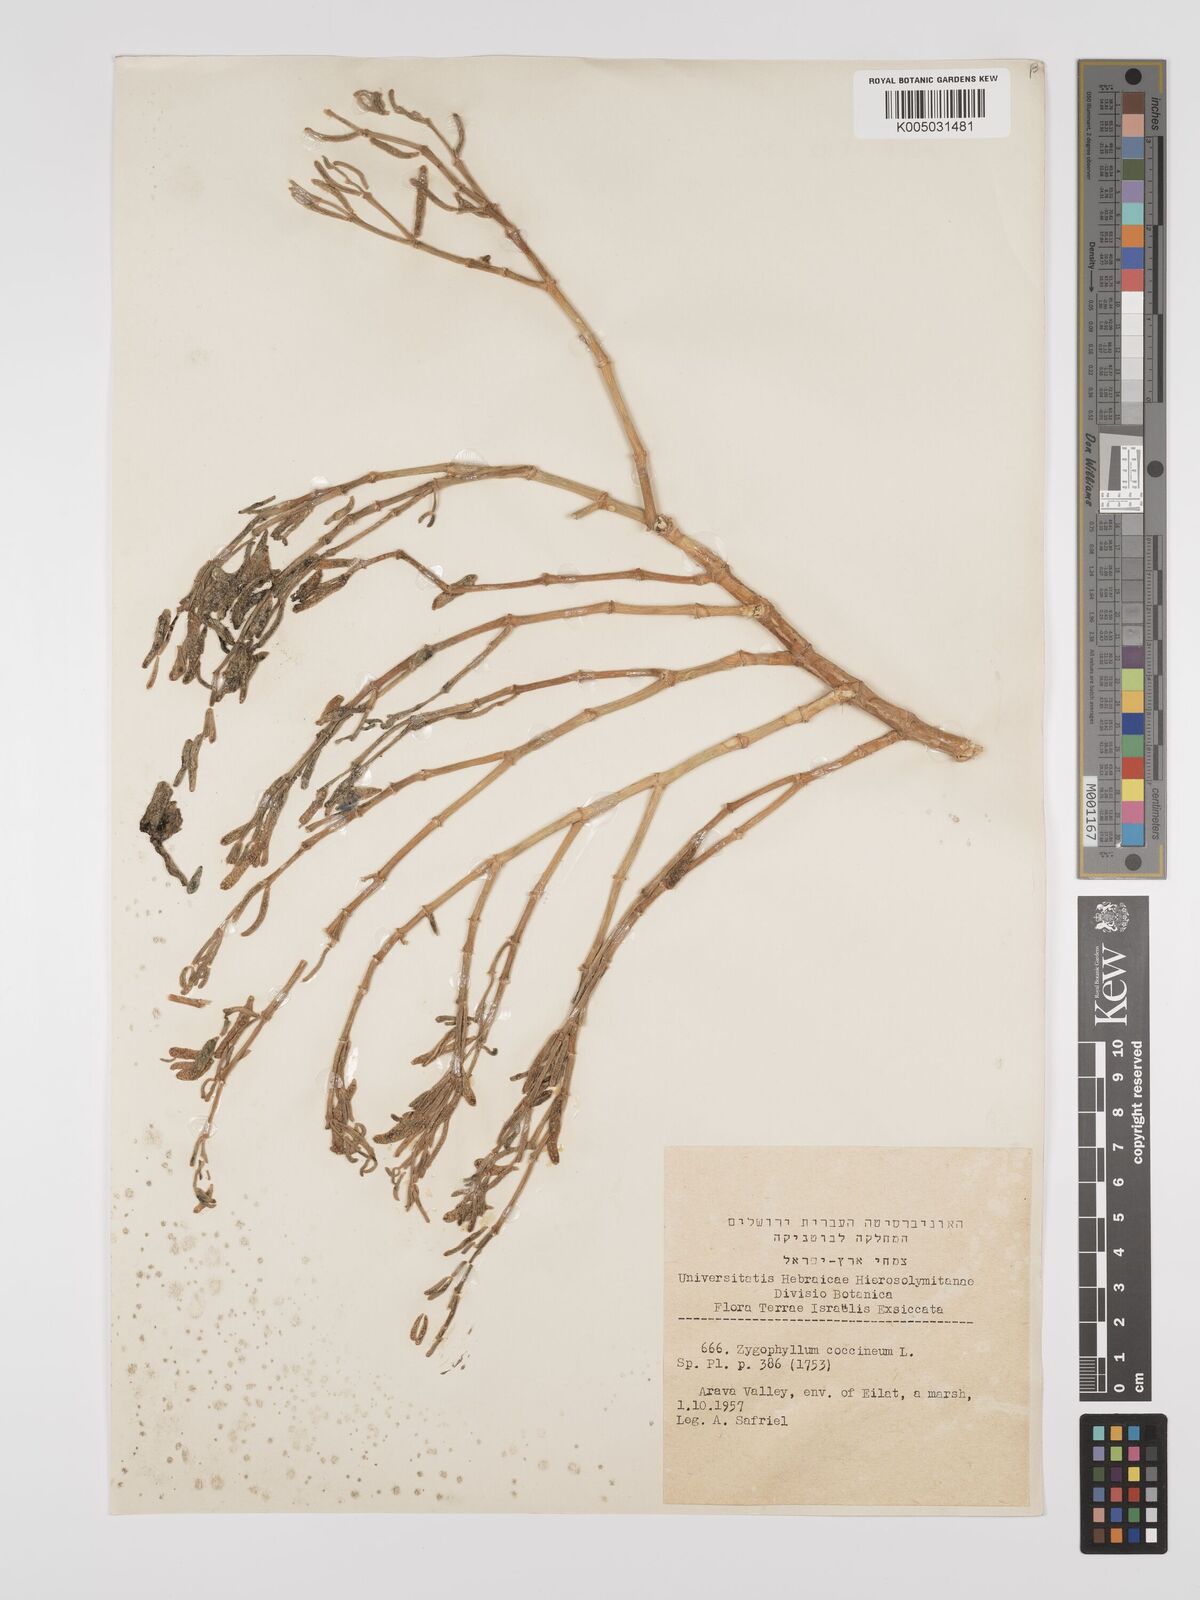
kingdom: Plantae
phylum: Tracheophyta
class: Magnoliopsida
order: Zygophyllales
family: Zygophyllaceae
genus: Tetraena
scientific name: Tetraena coccinea
